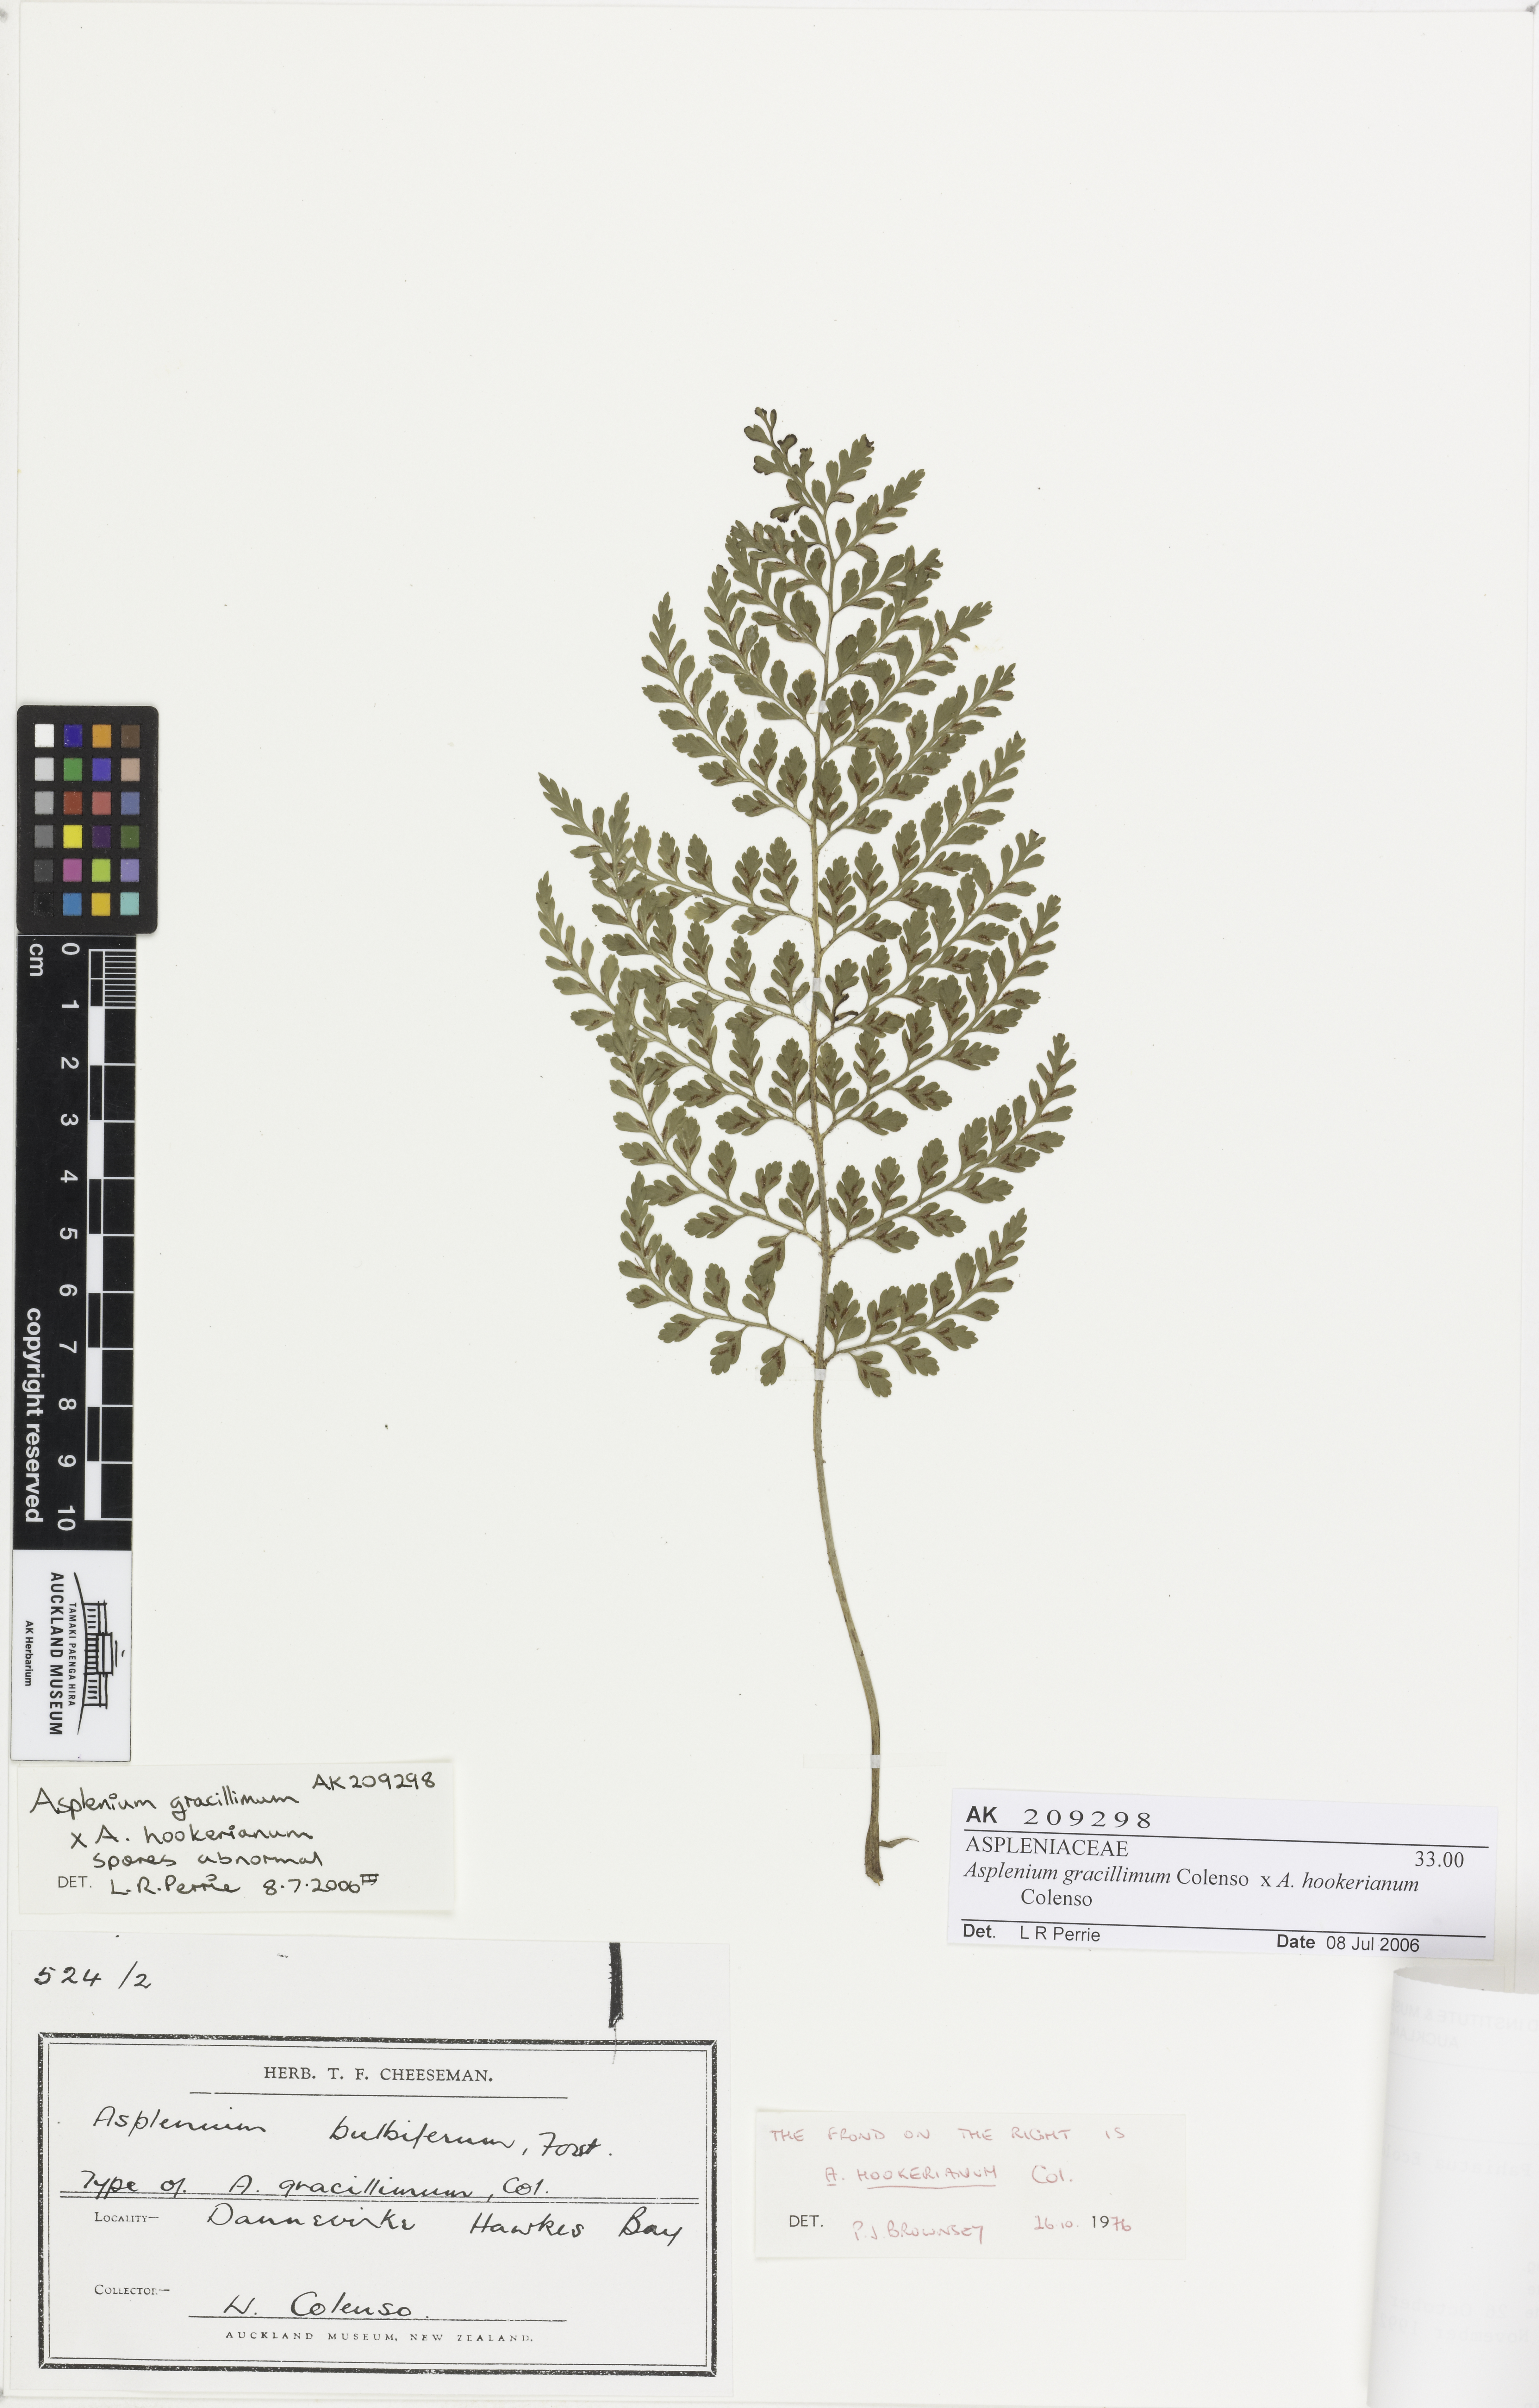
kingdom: Plantae
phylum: Tracheophyta
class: Polypodiopsida
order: Polypodiales
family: Aspleniaceae
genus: Asplenium
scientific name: Asplenium
